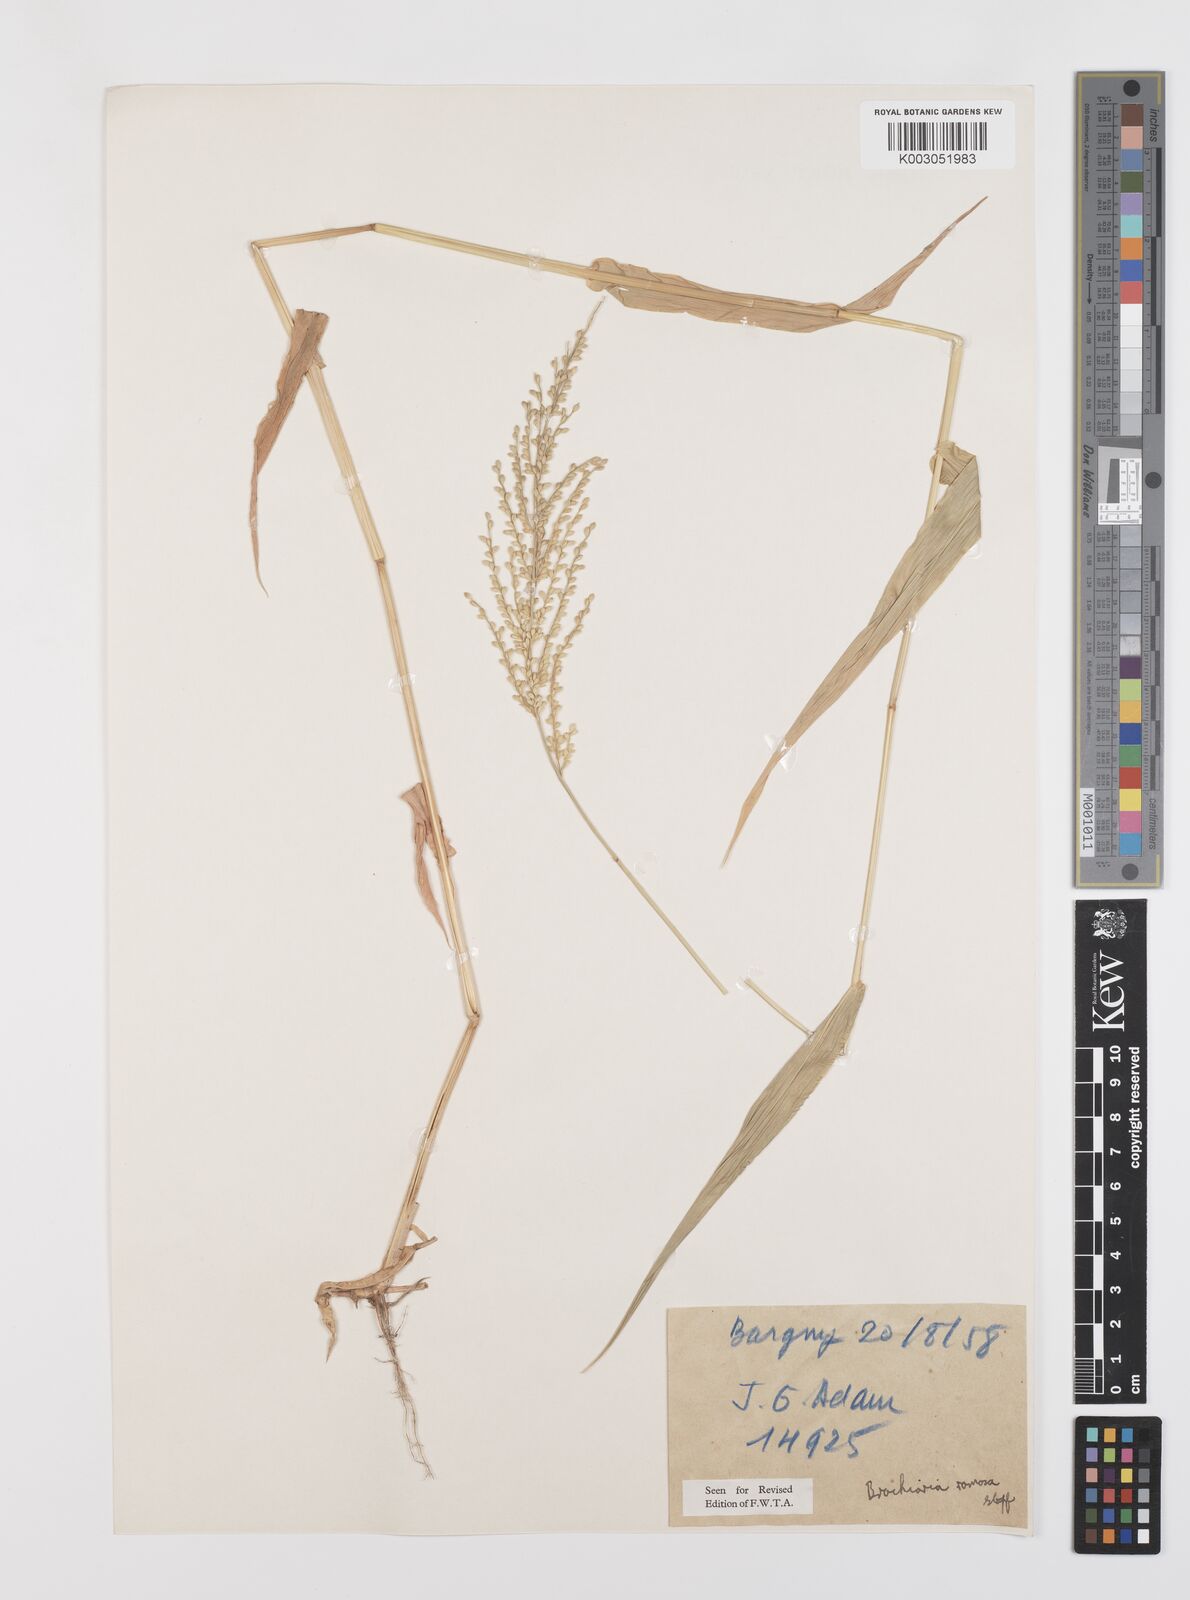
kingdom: Plantae
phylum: Tracheophyta
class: Liliopsida
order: Poales
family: Poaceae
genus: Urochloa
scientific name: Urochloa ramosa
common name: Browntop millet
